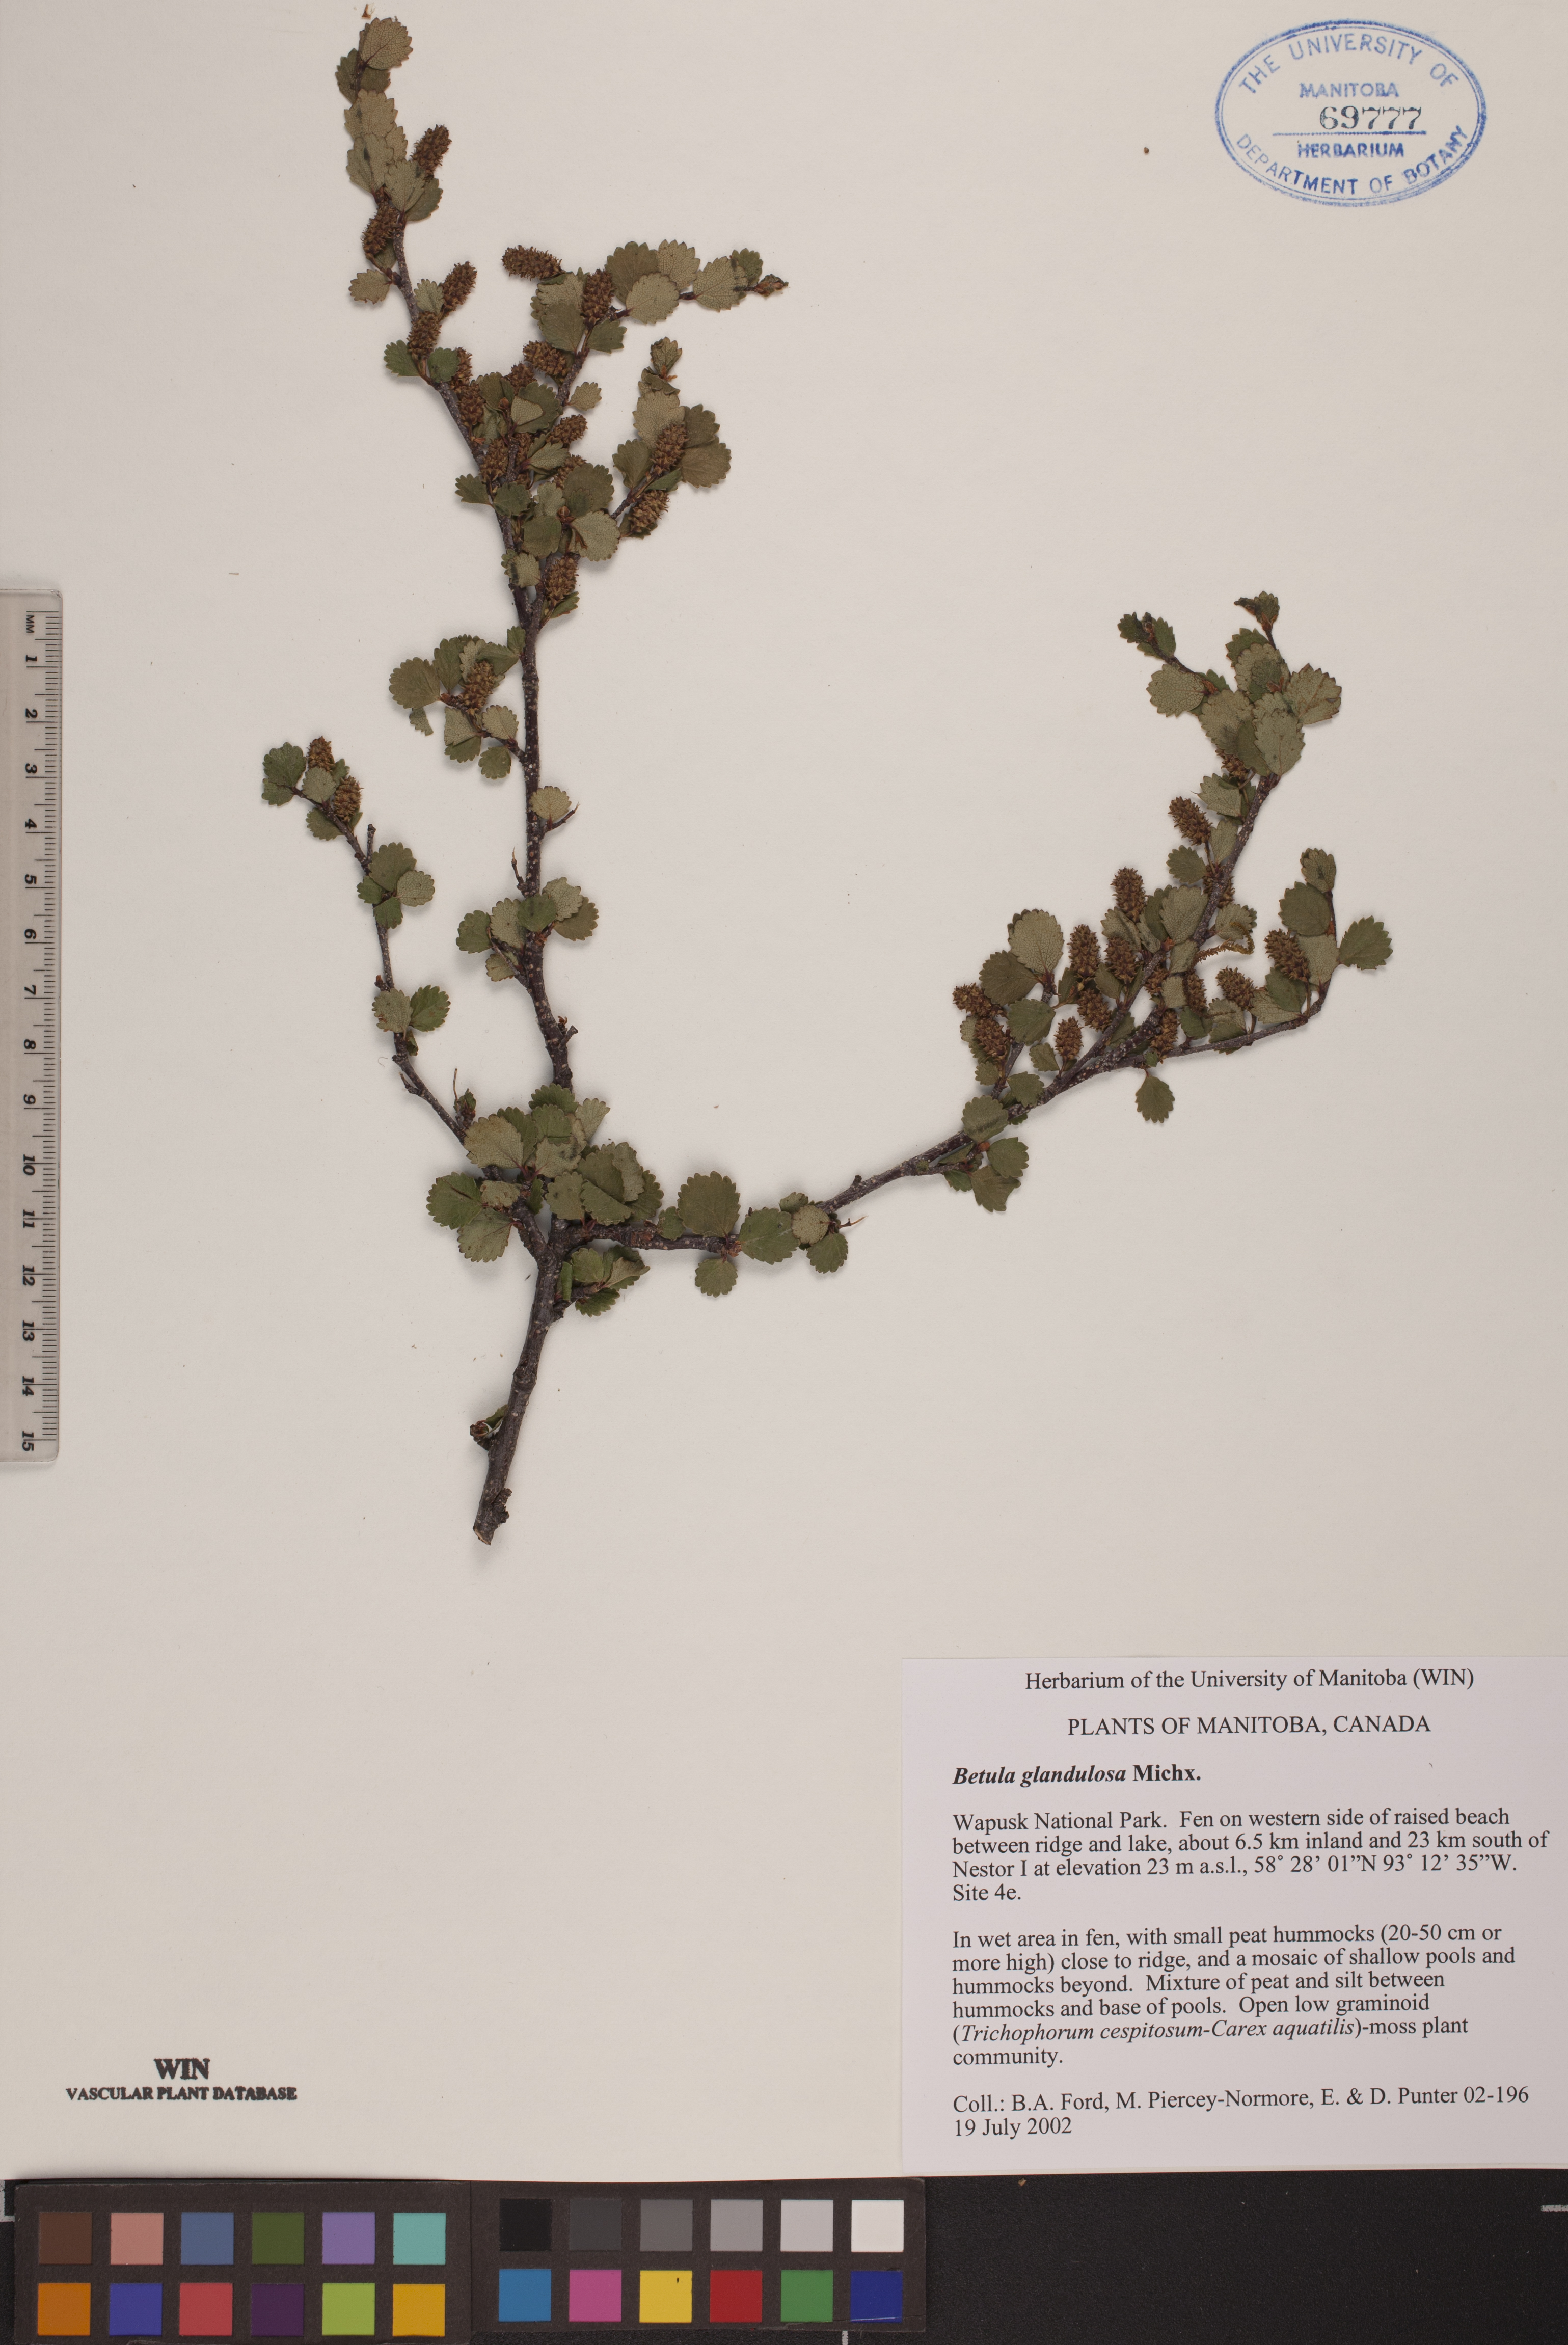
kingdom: Plantae
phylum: Tracheophyta
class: Magnoliopsida
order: Fagales
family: Betulaceae
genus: Betula
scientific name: Betula glandulosa
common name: Dwarf birch
